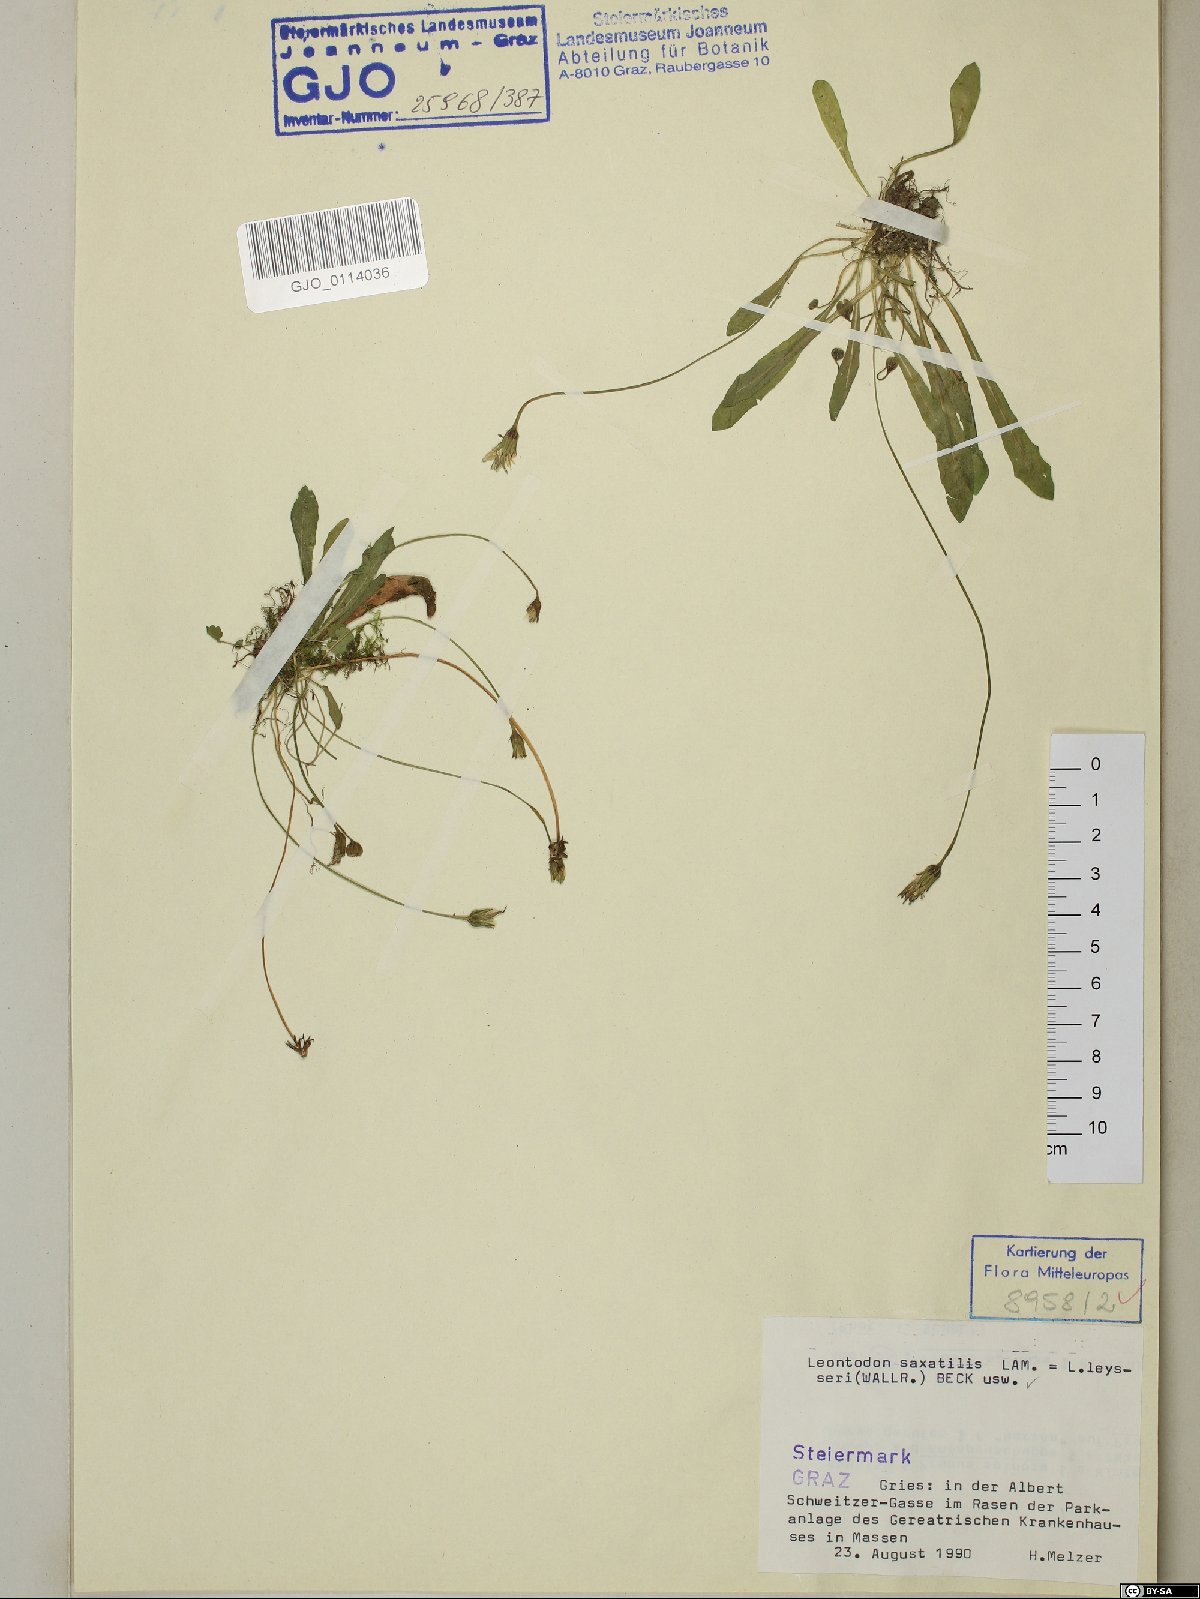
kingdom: Plantae
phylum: Tracheophyta
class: Magnoliopsida
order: Asterales
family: Asteraceae
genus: Thrincia
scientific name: Thrincia saxatilis
